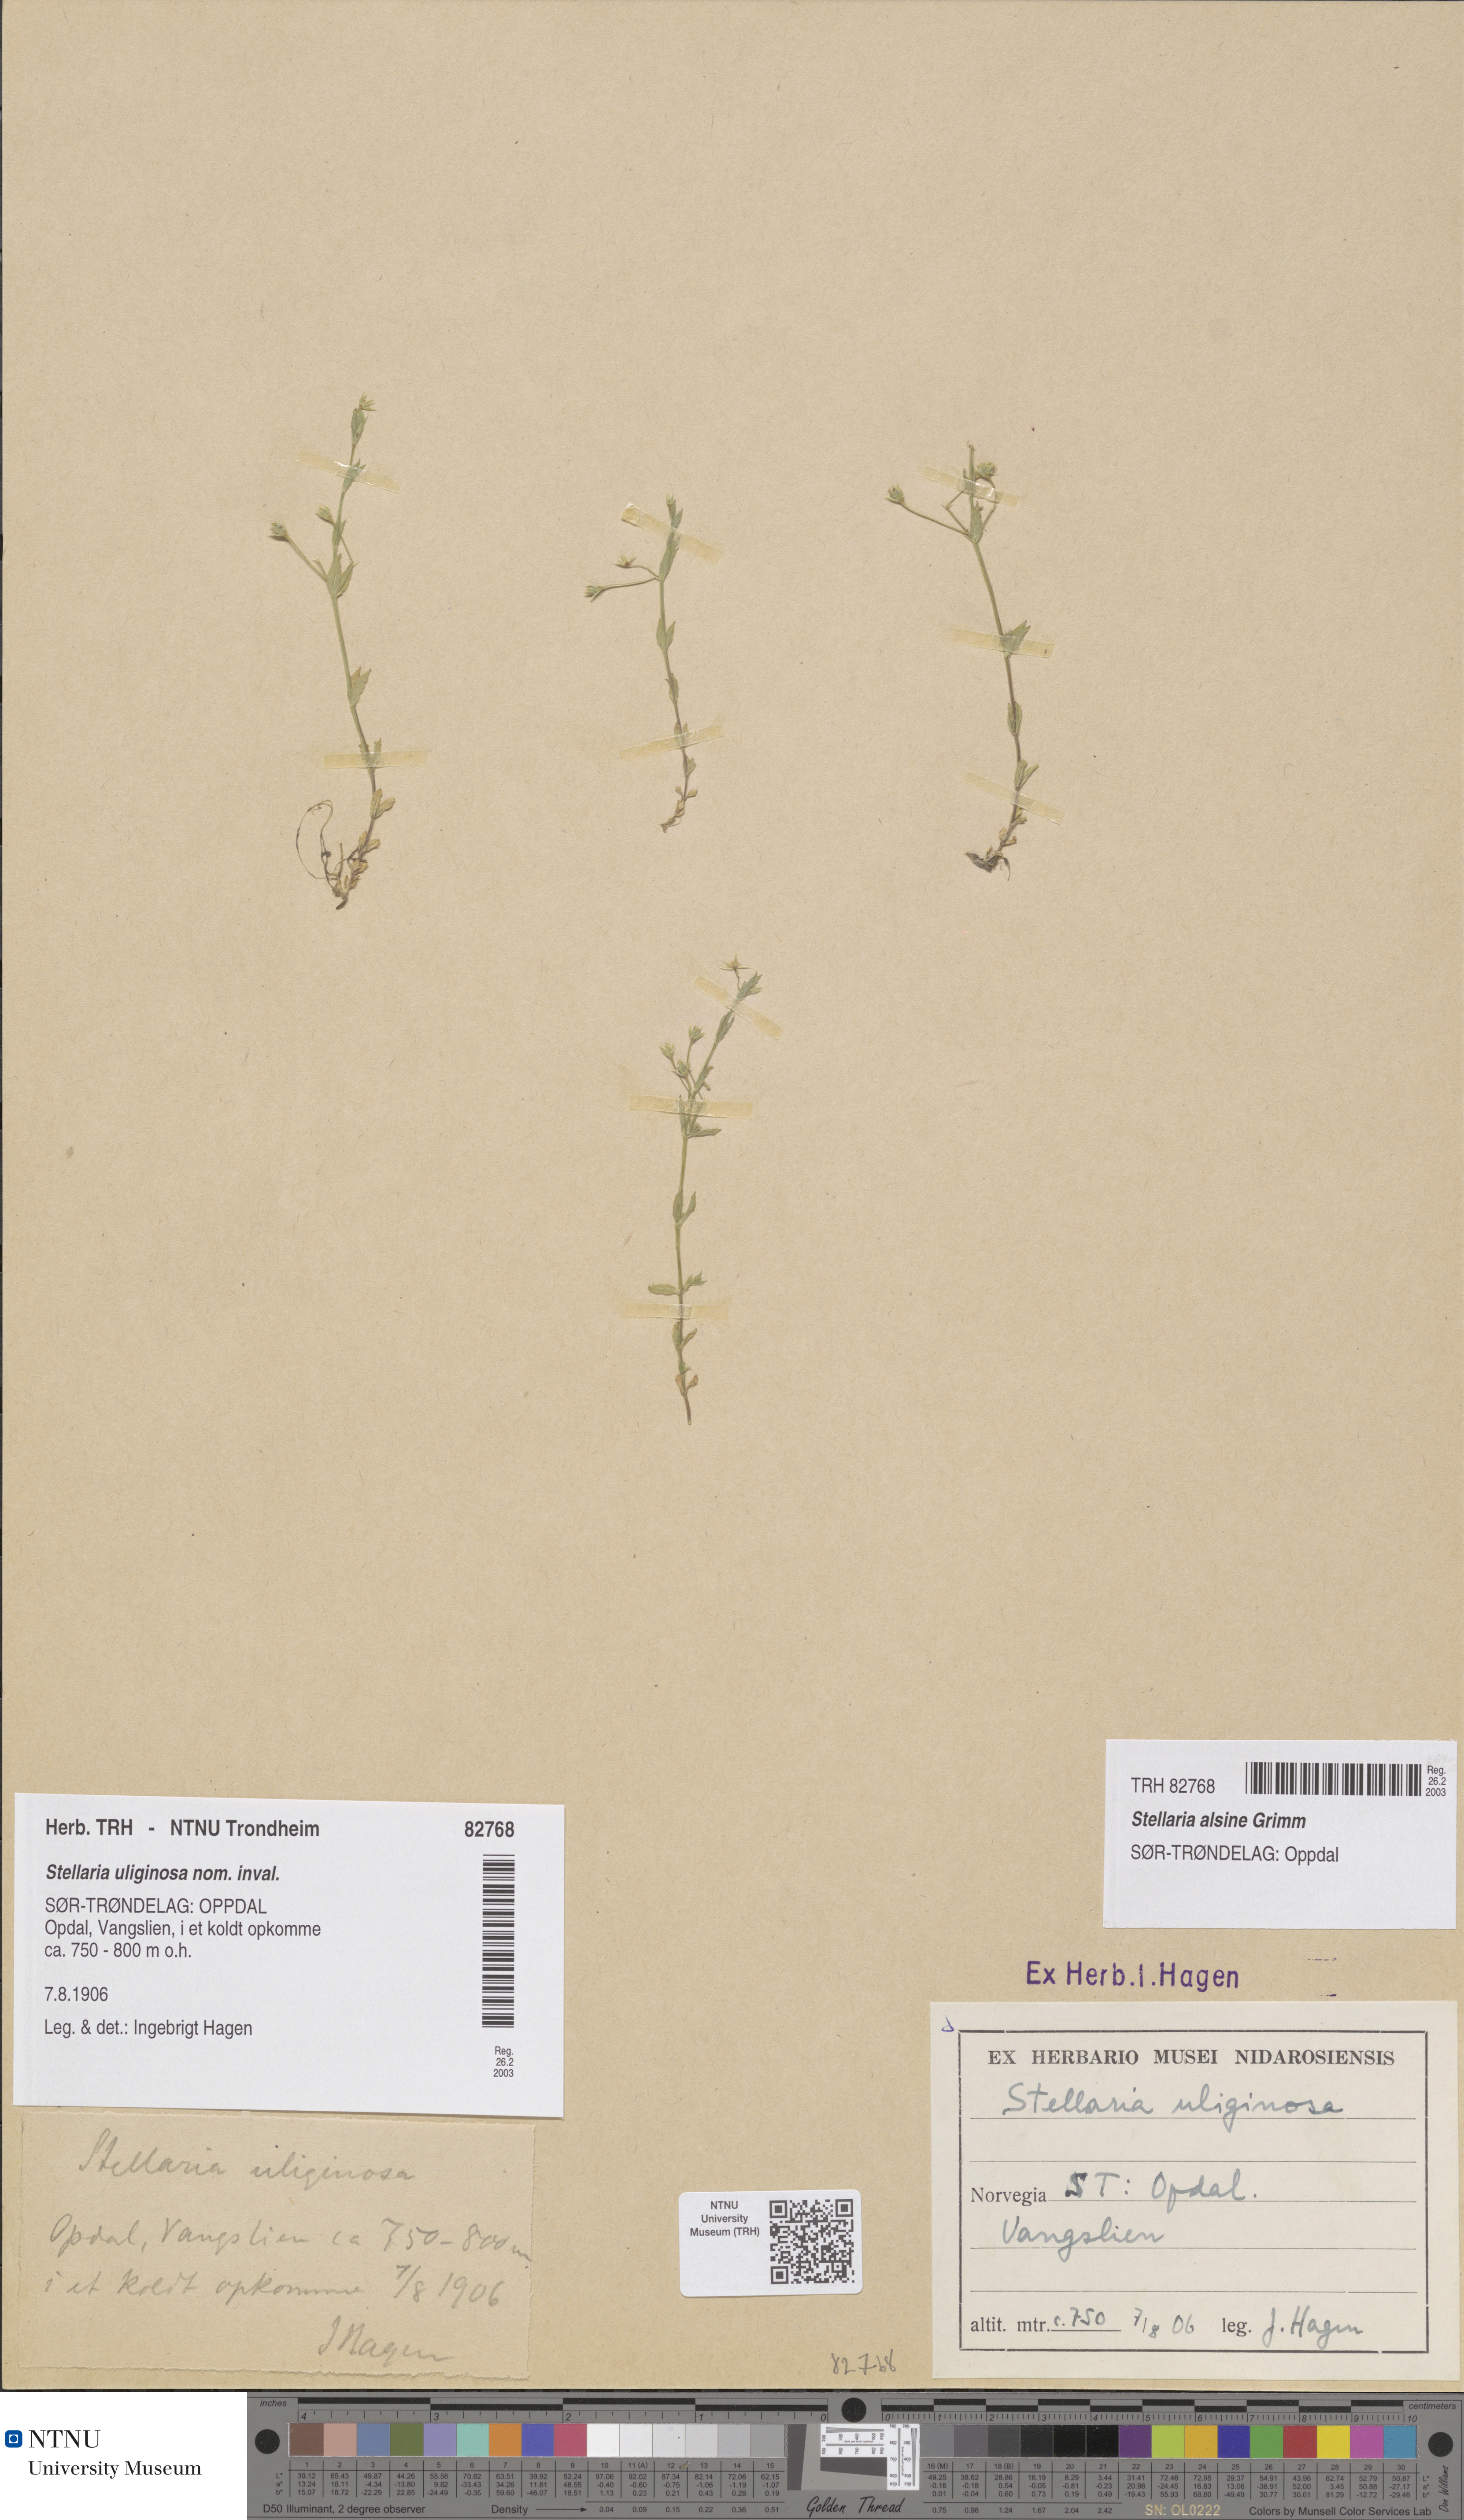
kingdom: Plantae
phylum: Tracheophyta
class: Magnoliopsida
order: Caryophyllales
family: Caryophyllaceae
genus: Stellaria
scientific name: Stellaria alsine
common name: Bog stitchwort
